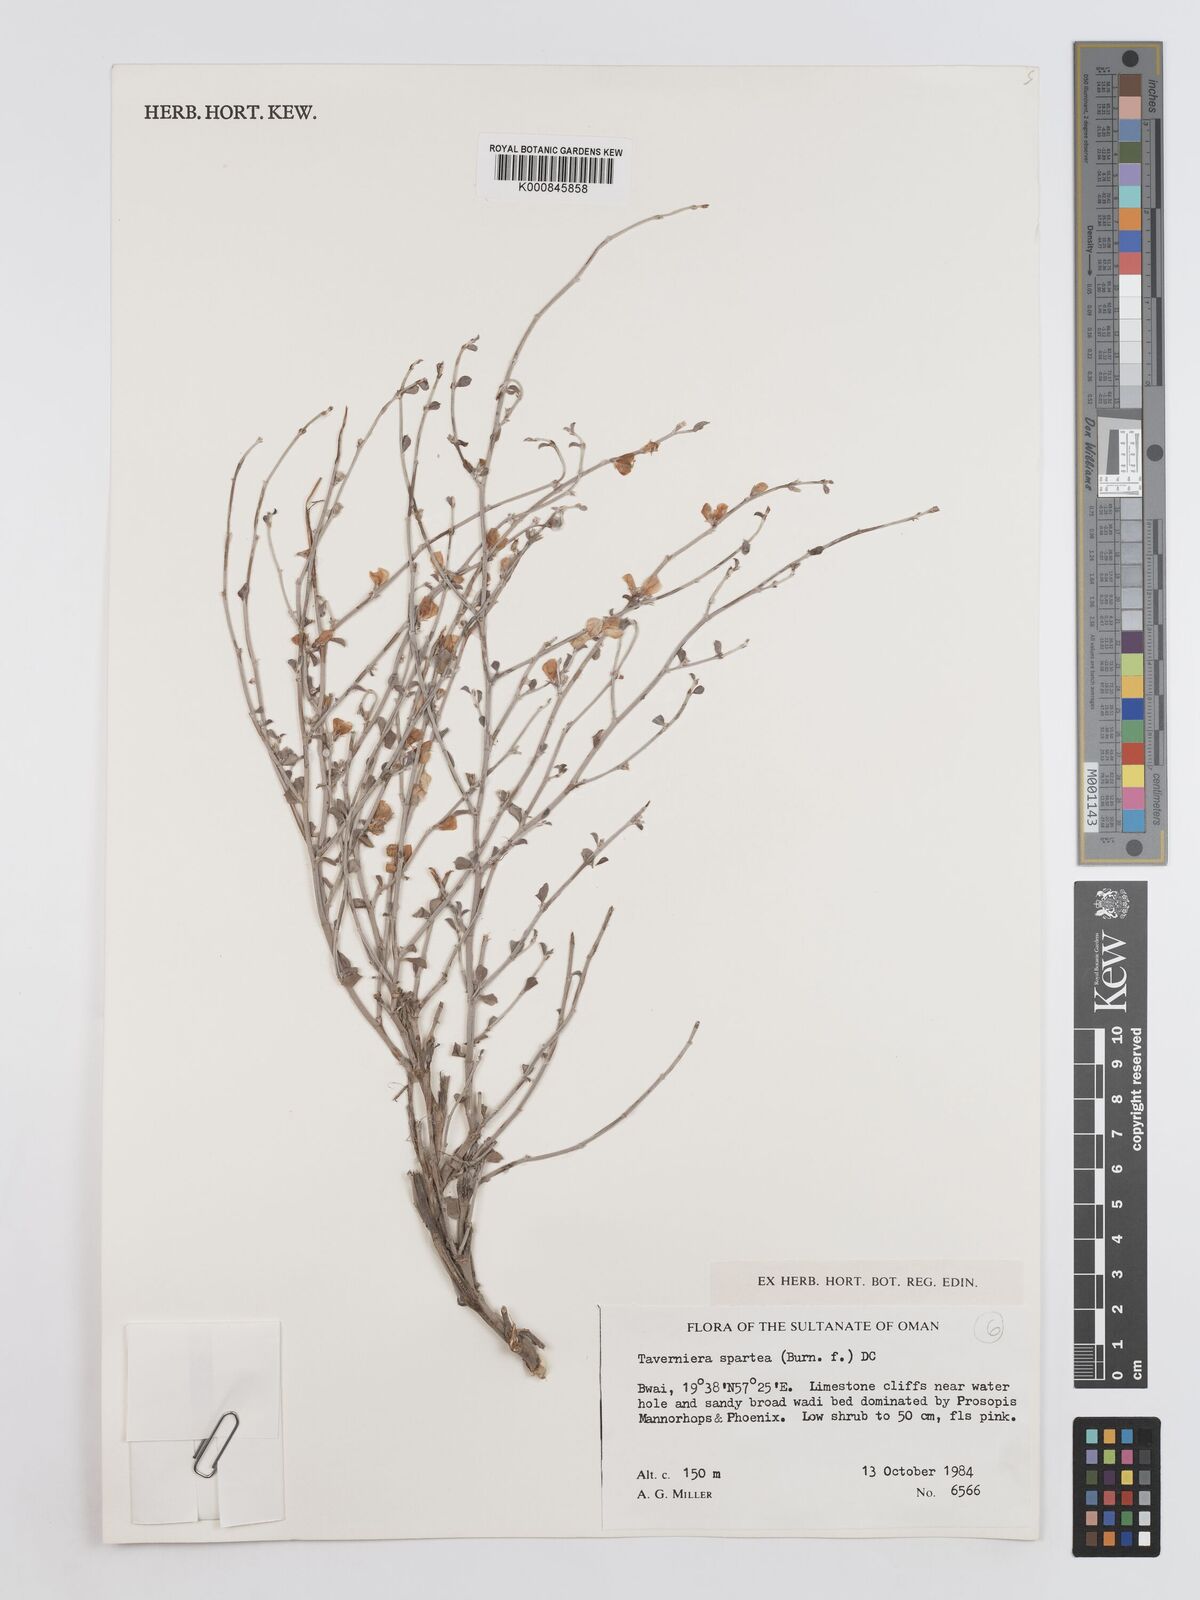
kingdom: Plantae
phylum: Tracheophyta
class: Magnoliopsida
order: Fabales
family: Fabaceae
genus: Taverniera
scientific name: Taverniera spartea
